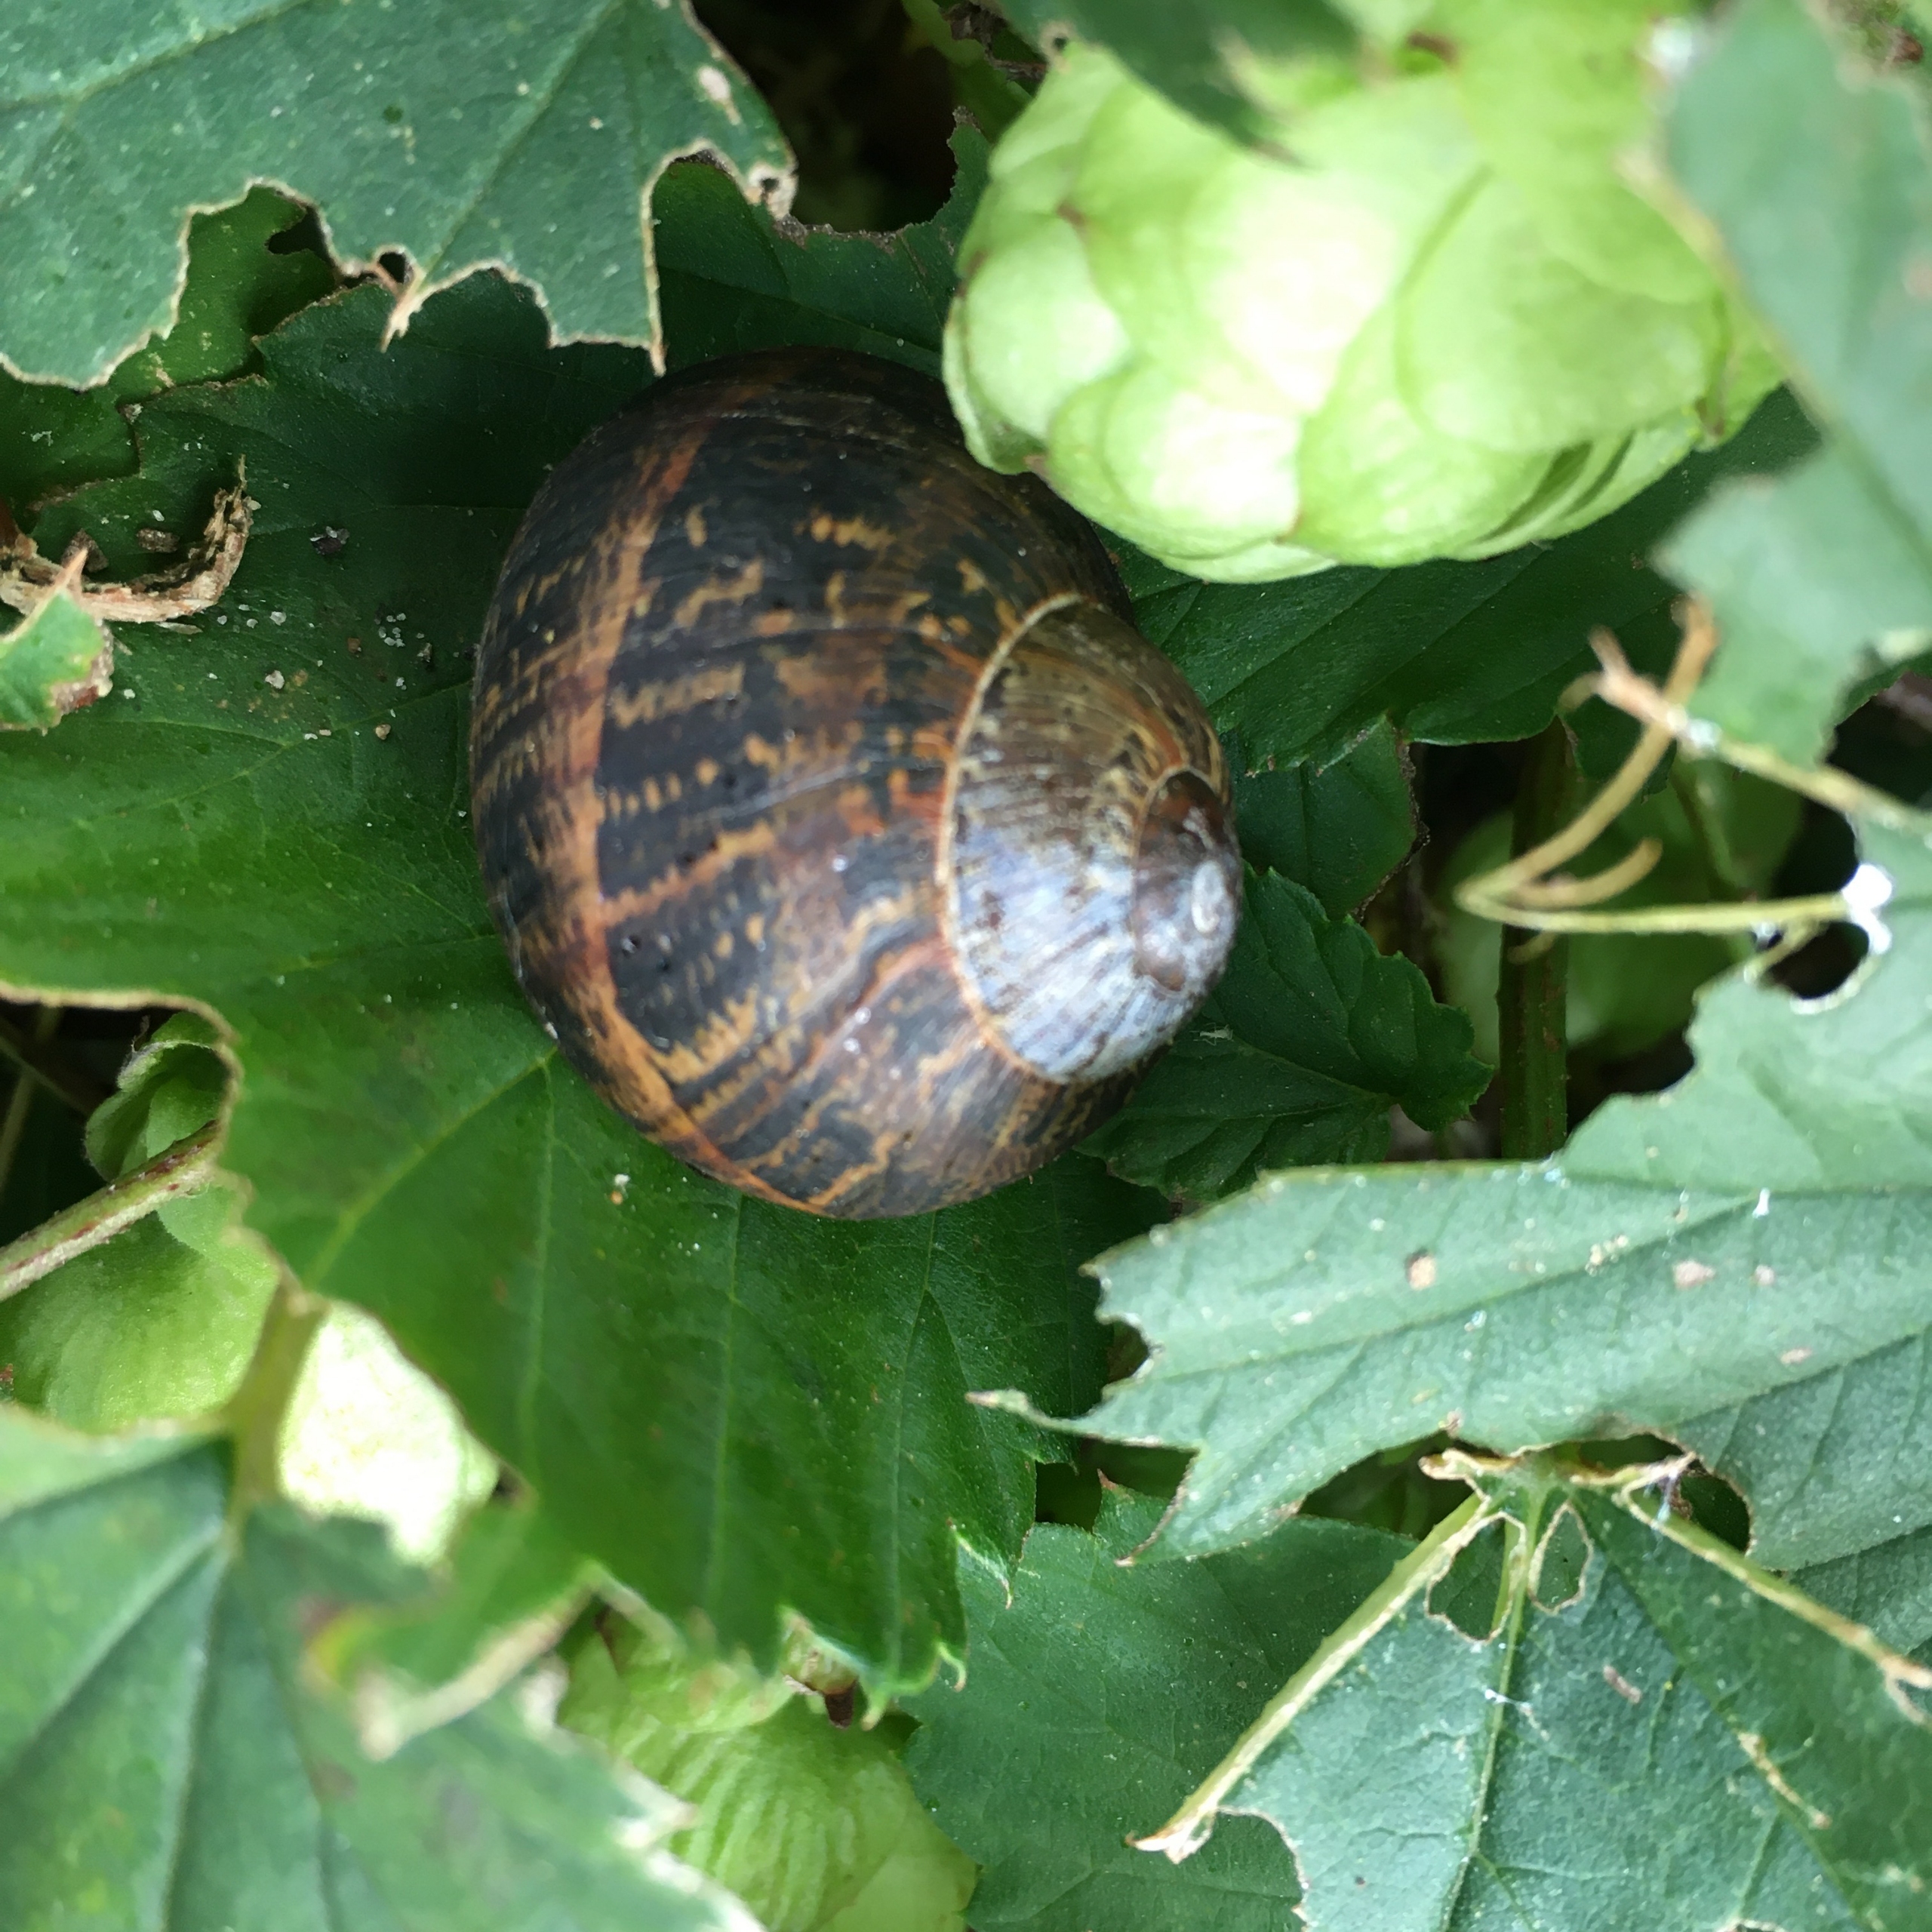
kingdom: Animalia
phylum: Mollusca
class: Gastropoda
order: Stylommatophora
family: Helicidae
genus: Cornu
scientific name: Cornu aspersum
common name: Plettet voldsnegl
